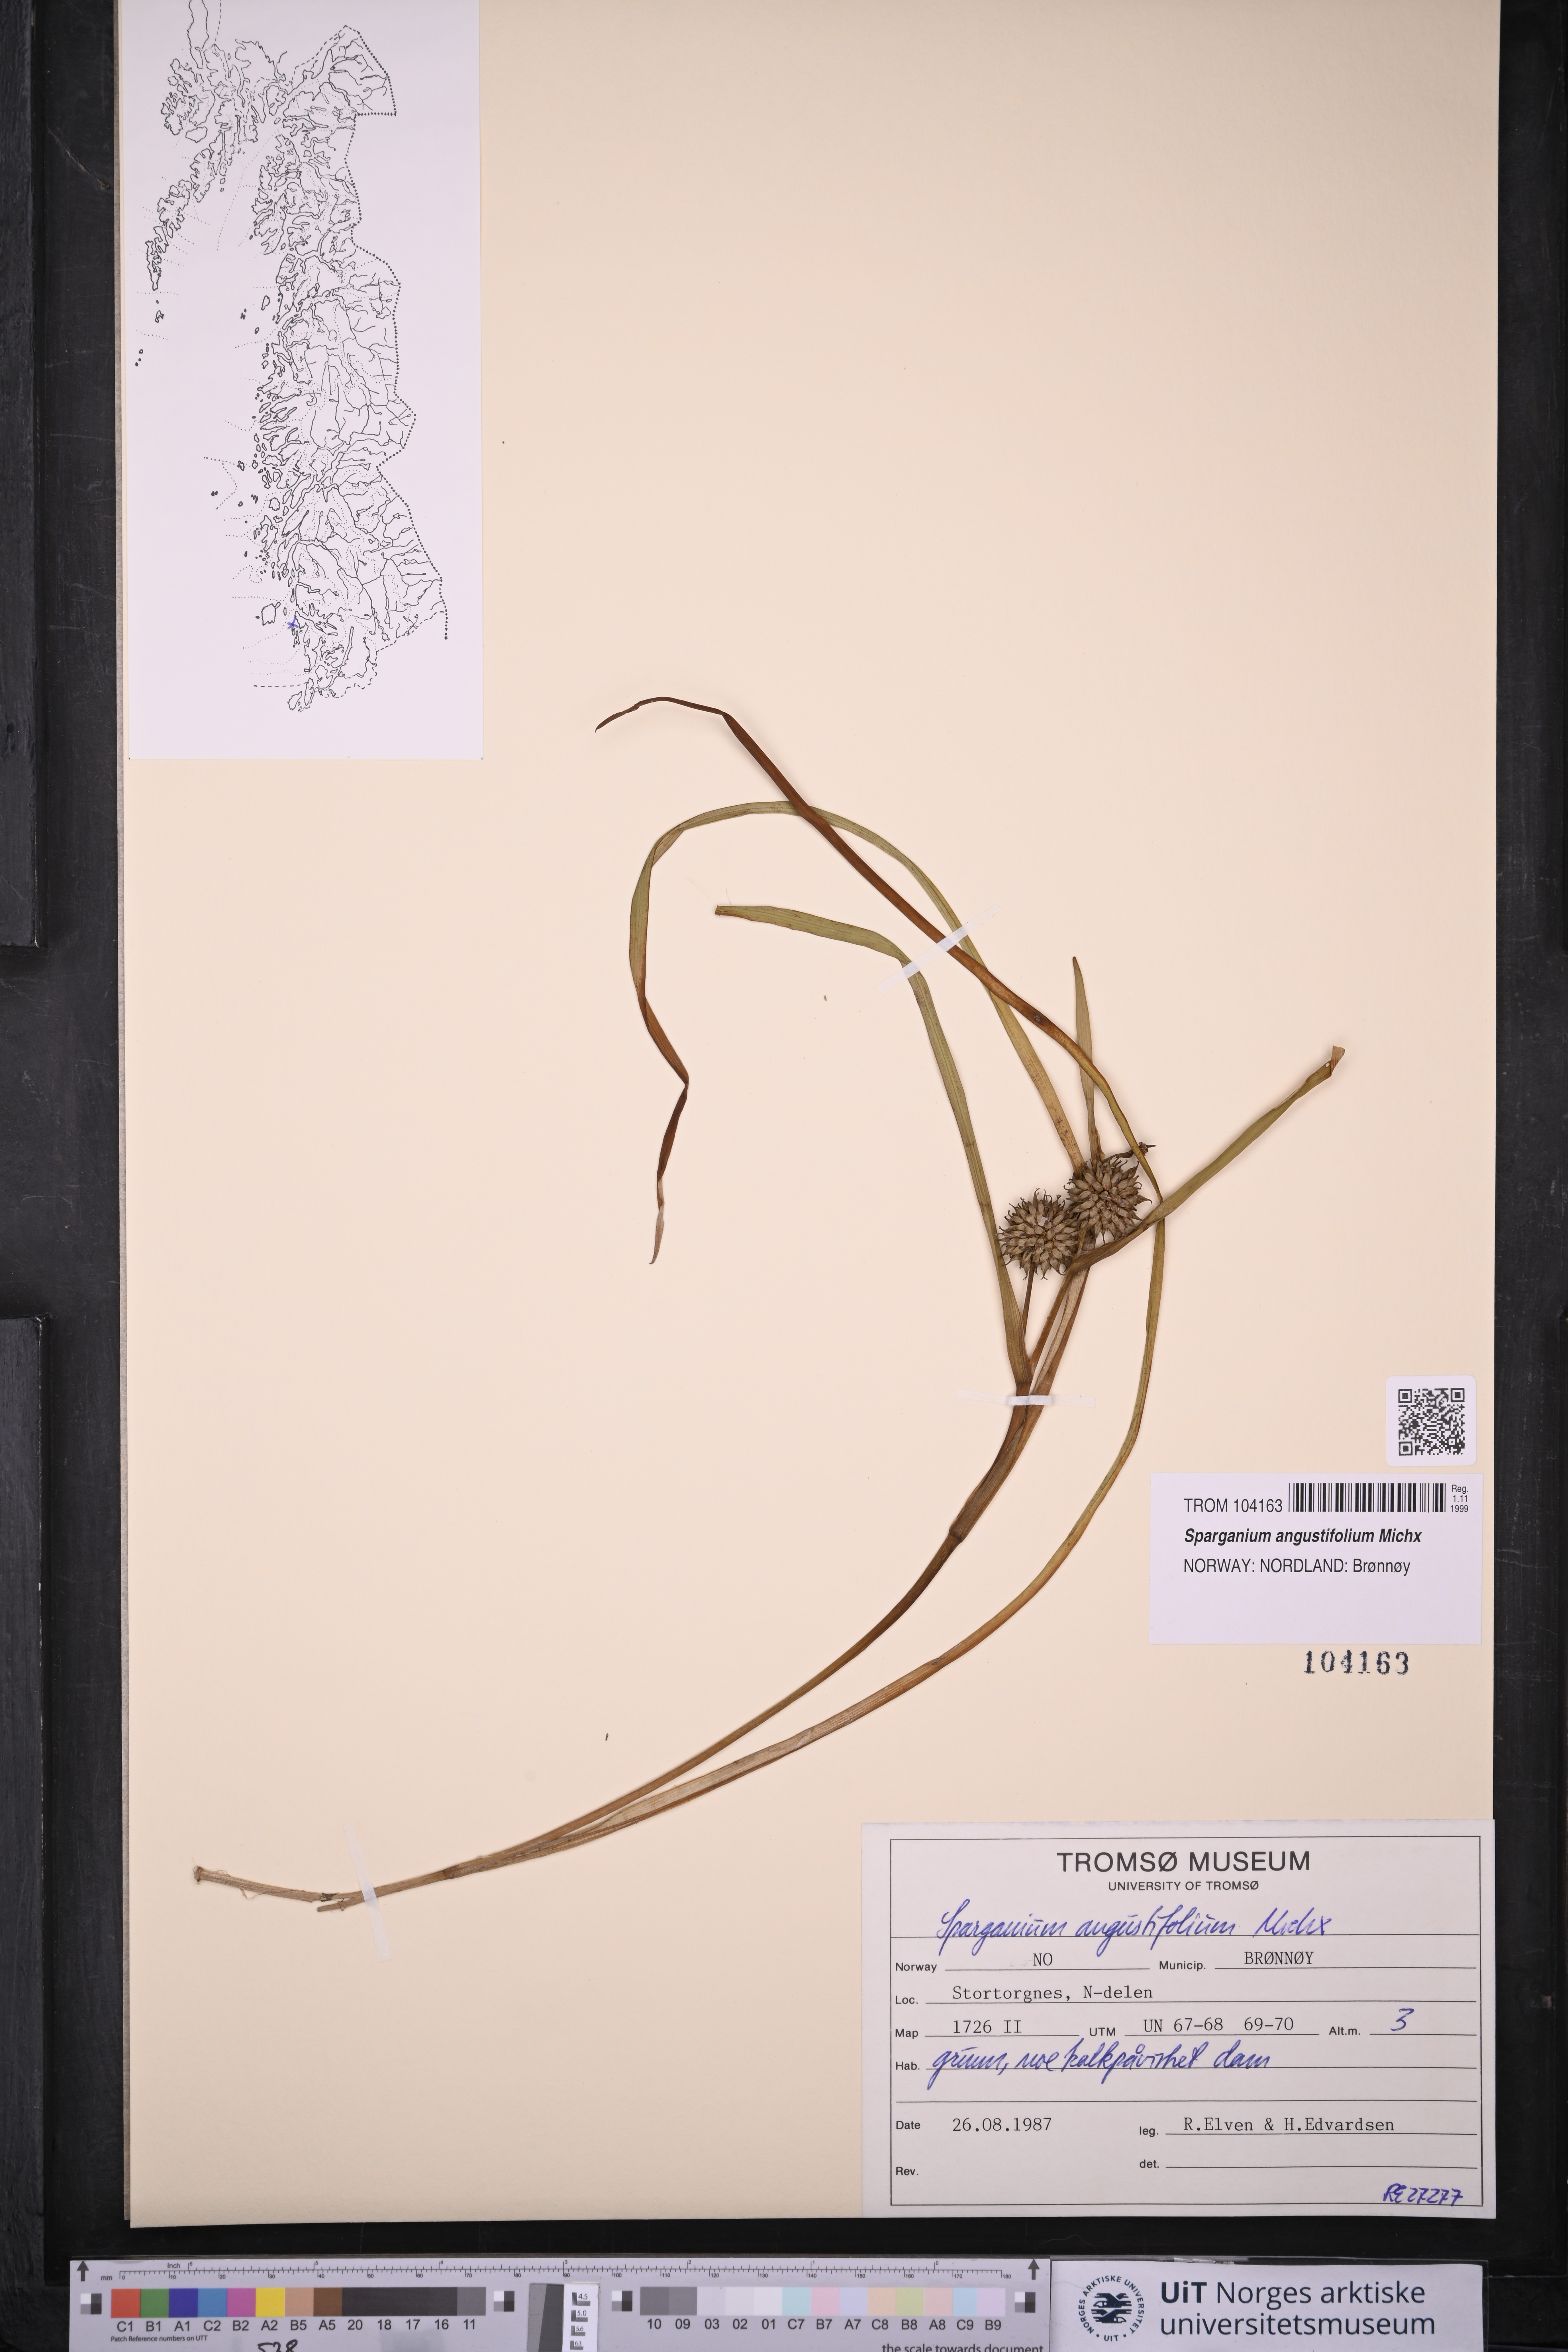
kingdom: Plantae
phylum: Tracheophyta
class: Liliopsida
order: Poales
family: Typhaceae
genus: Sparganium
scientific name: Sparganium angustifolium
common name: Floating bur-reed
